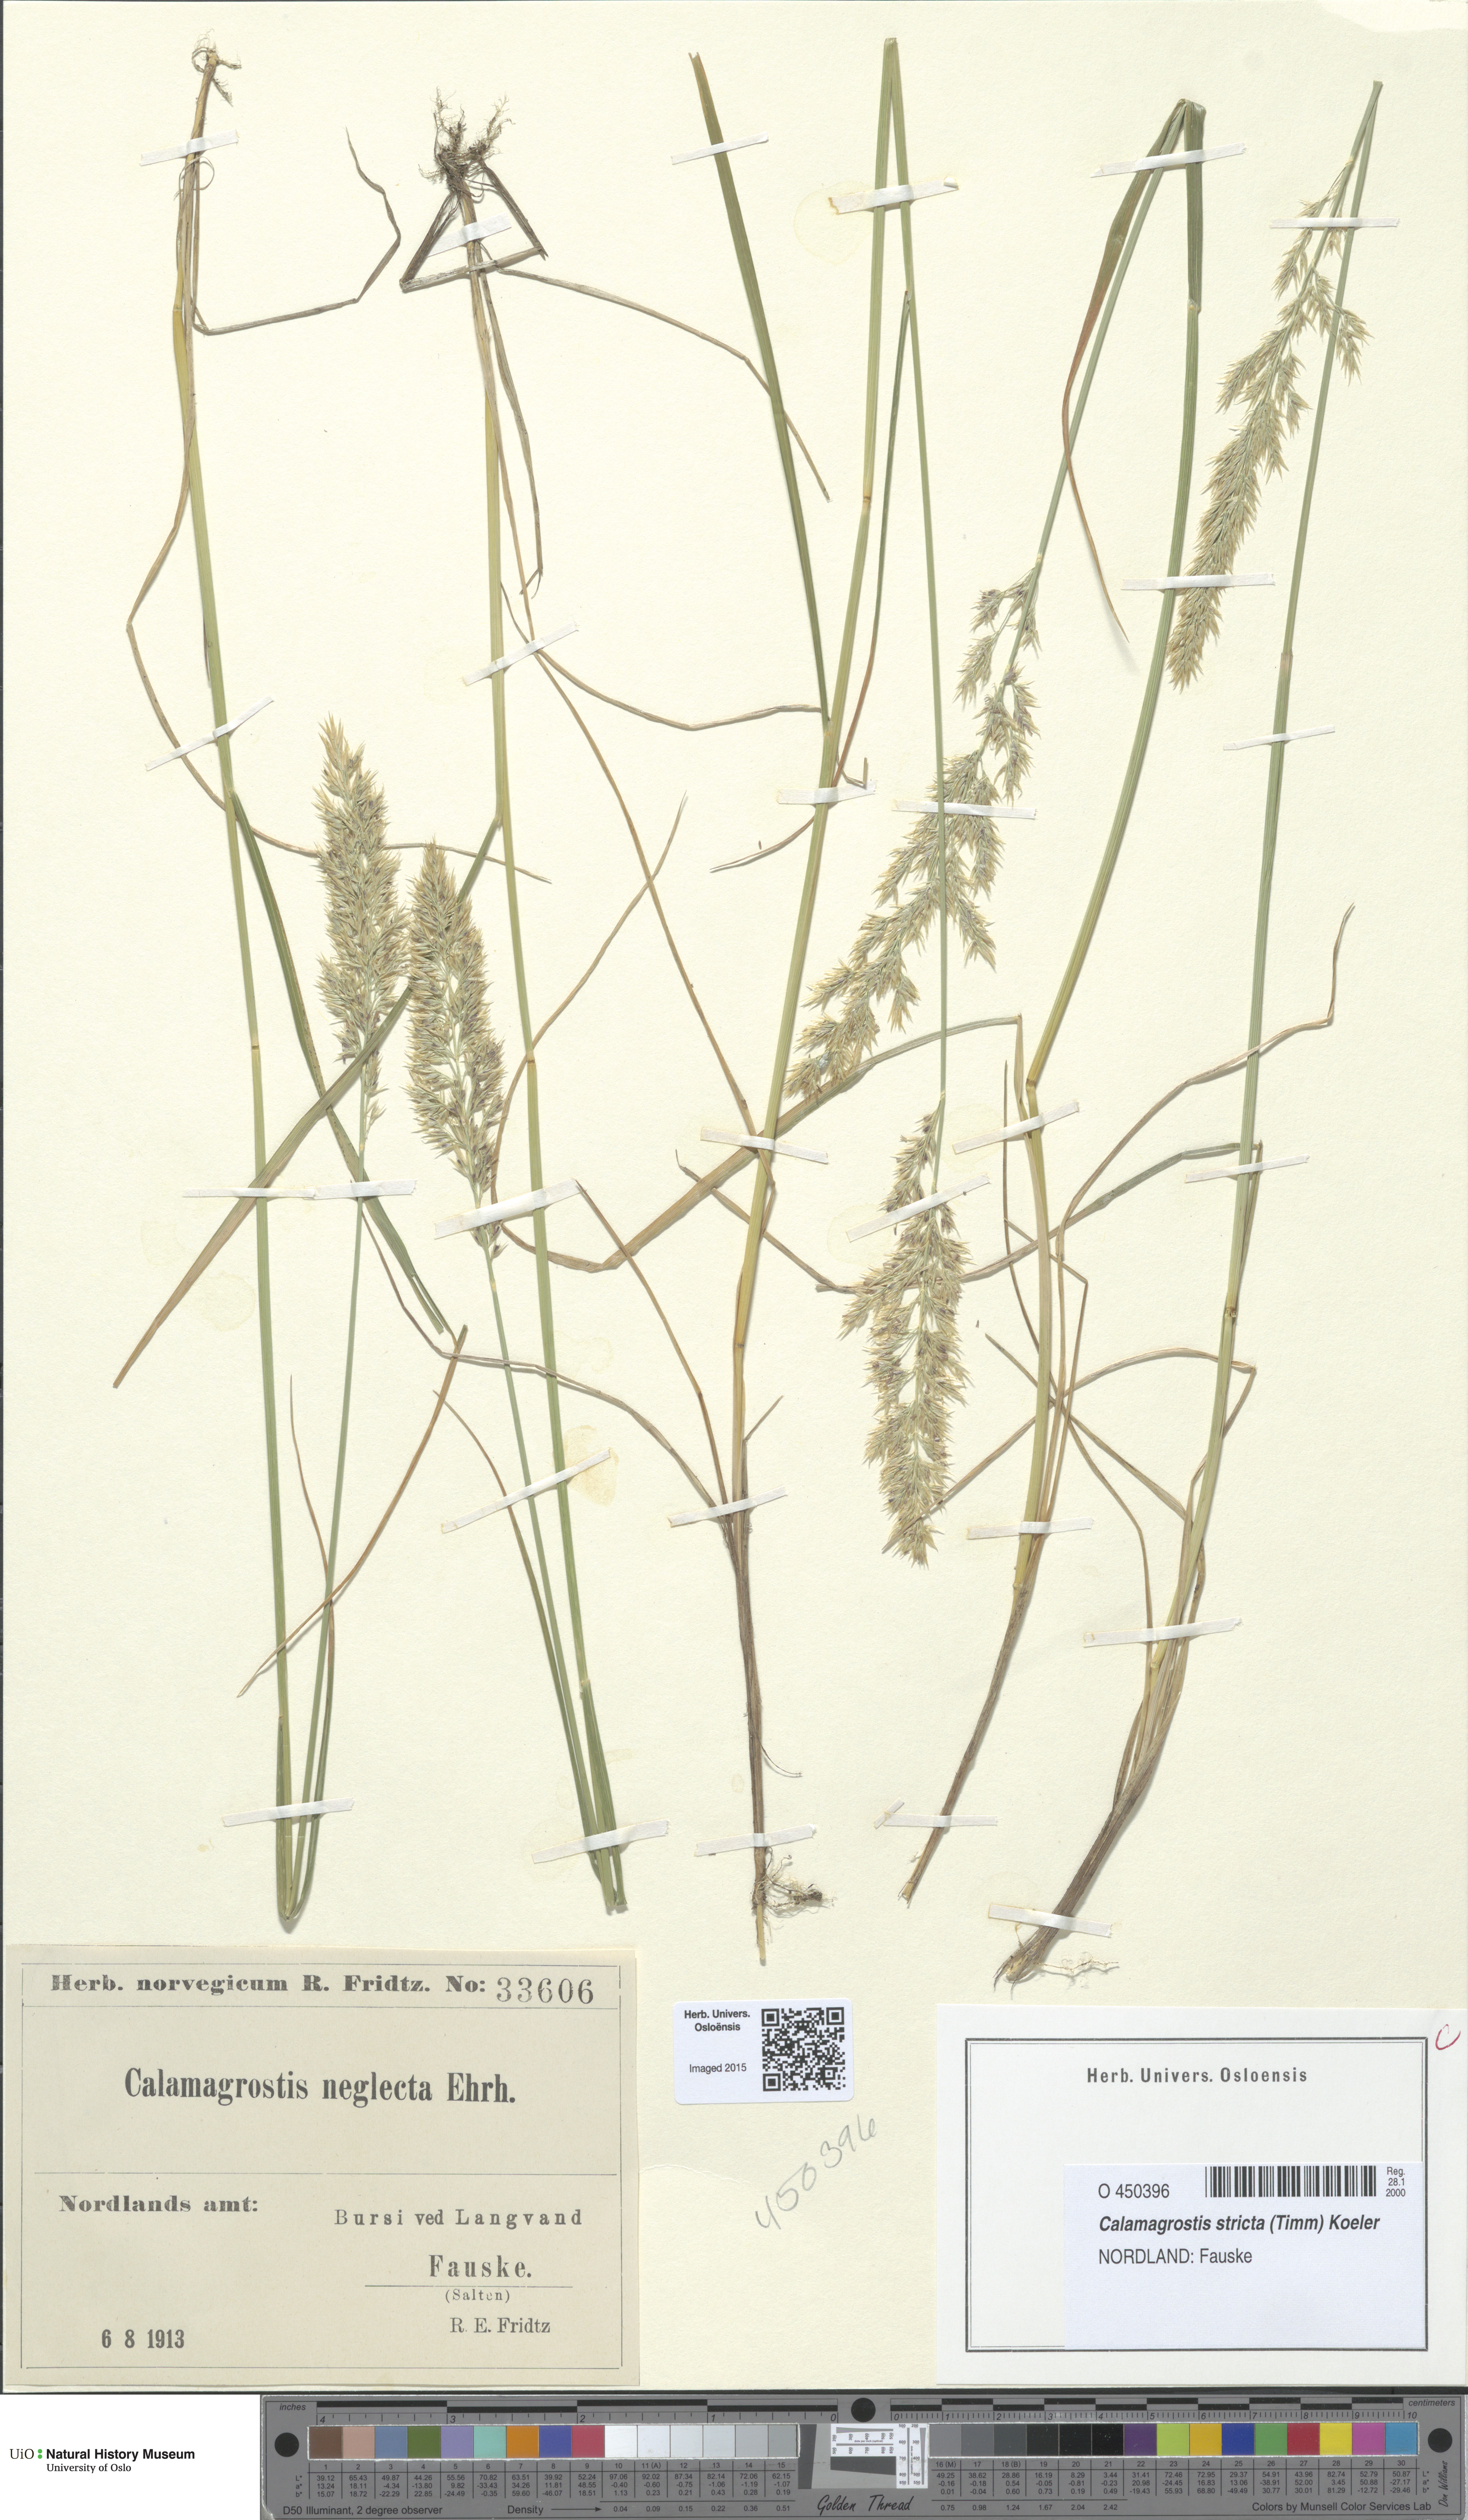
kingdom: Plantae
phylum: Tracheophyta
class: Liliopsida
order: Poales
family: Poaceae
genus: Achnatherum
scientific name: Achnatherum calamagrostis
